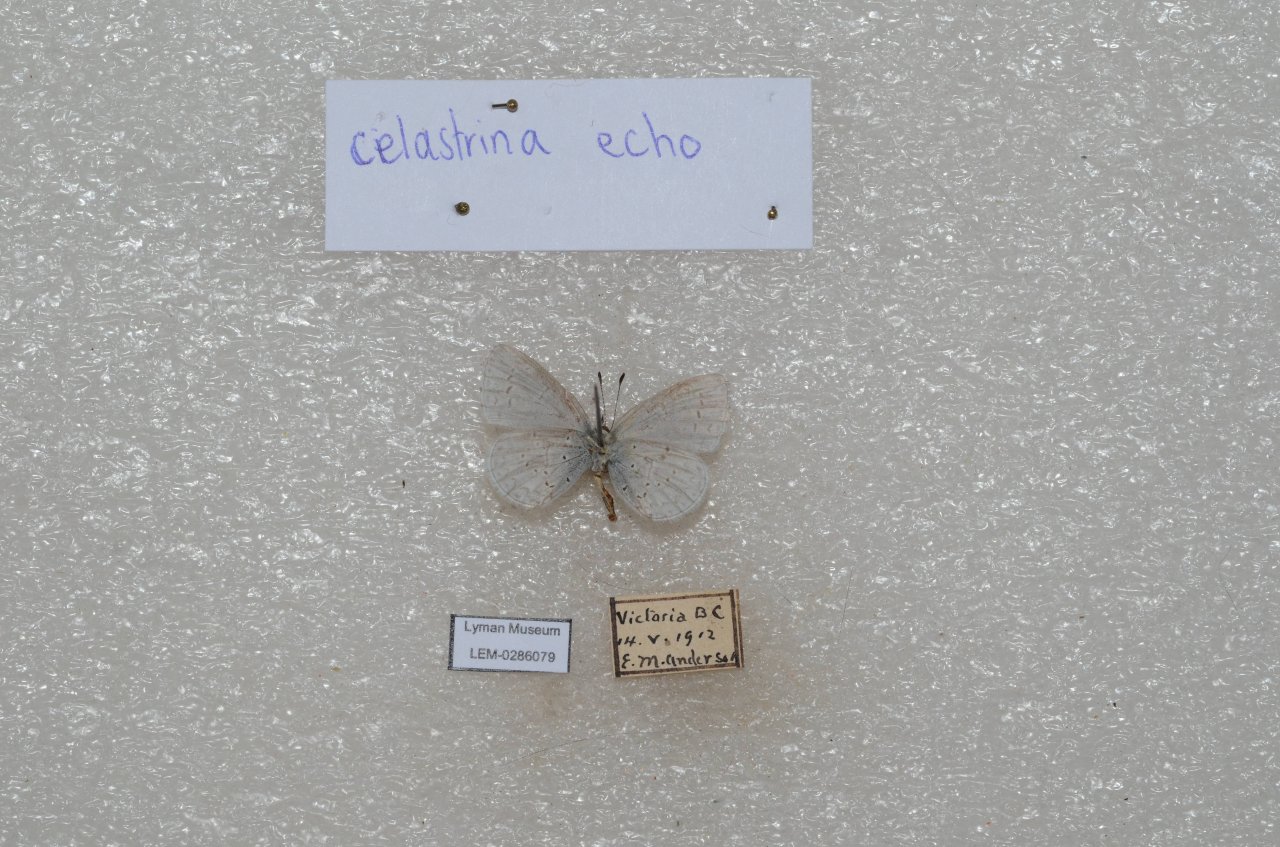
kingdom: Animalia
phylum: Arthropoda
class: Insecta
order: Lepidoptera
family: Lycaenidae
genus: Celastrina
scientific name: Celastrina ladon
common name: Echo Azure
